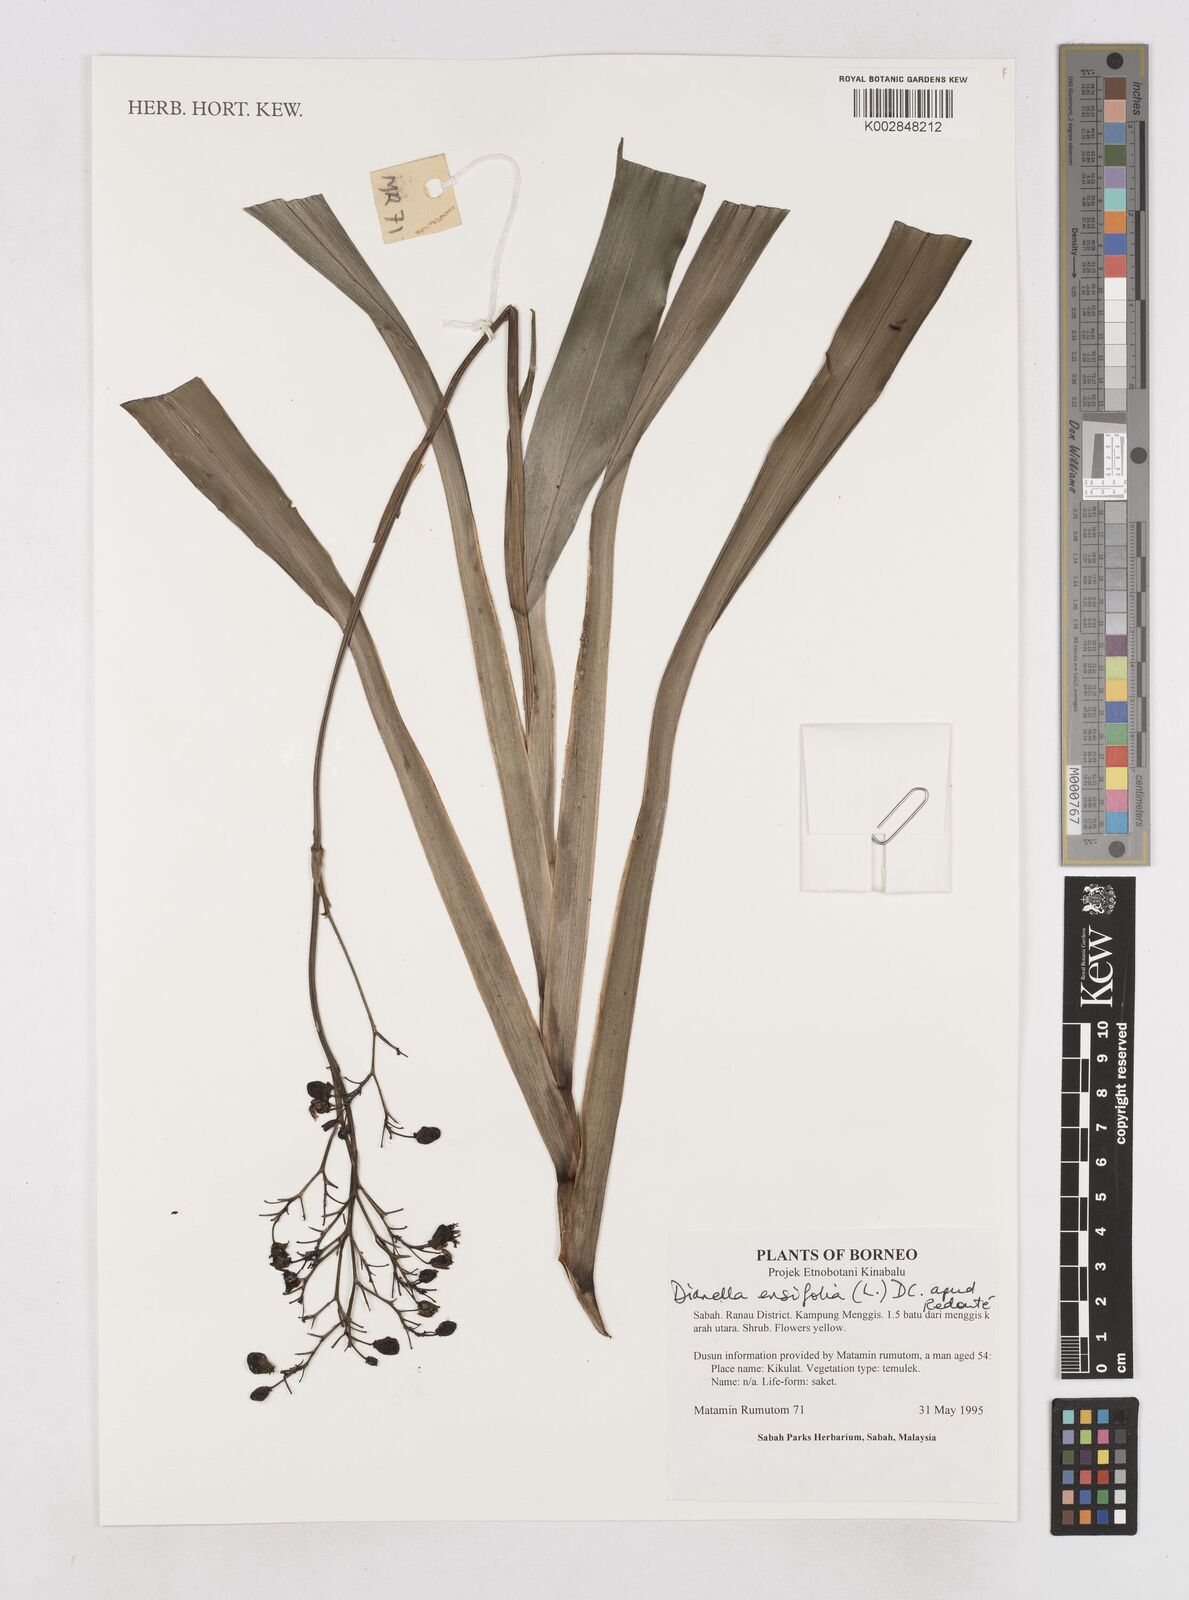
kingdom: Plantae
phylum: Tracheophyta
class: Liliopsida
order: Asparagales
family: Asphodelaceae
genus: Dianella
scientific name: Dianella ensifolia
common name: New zealand lilyplant
